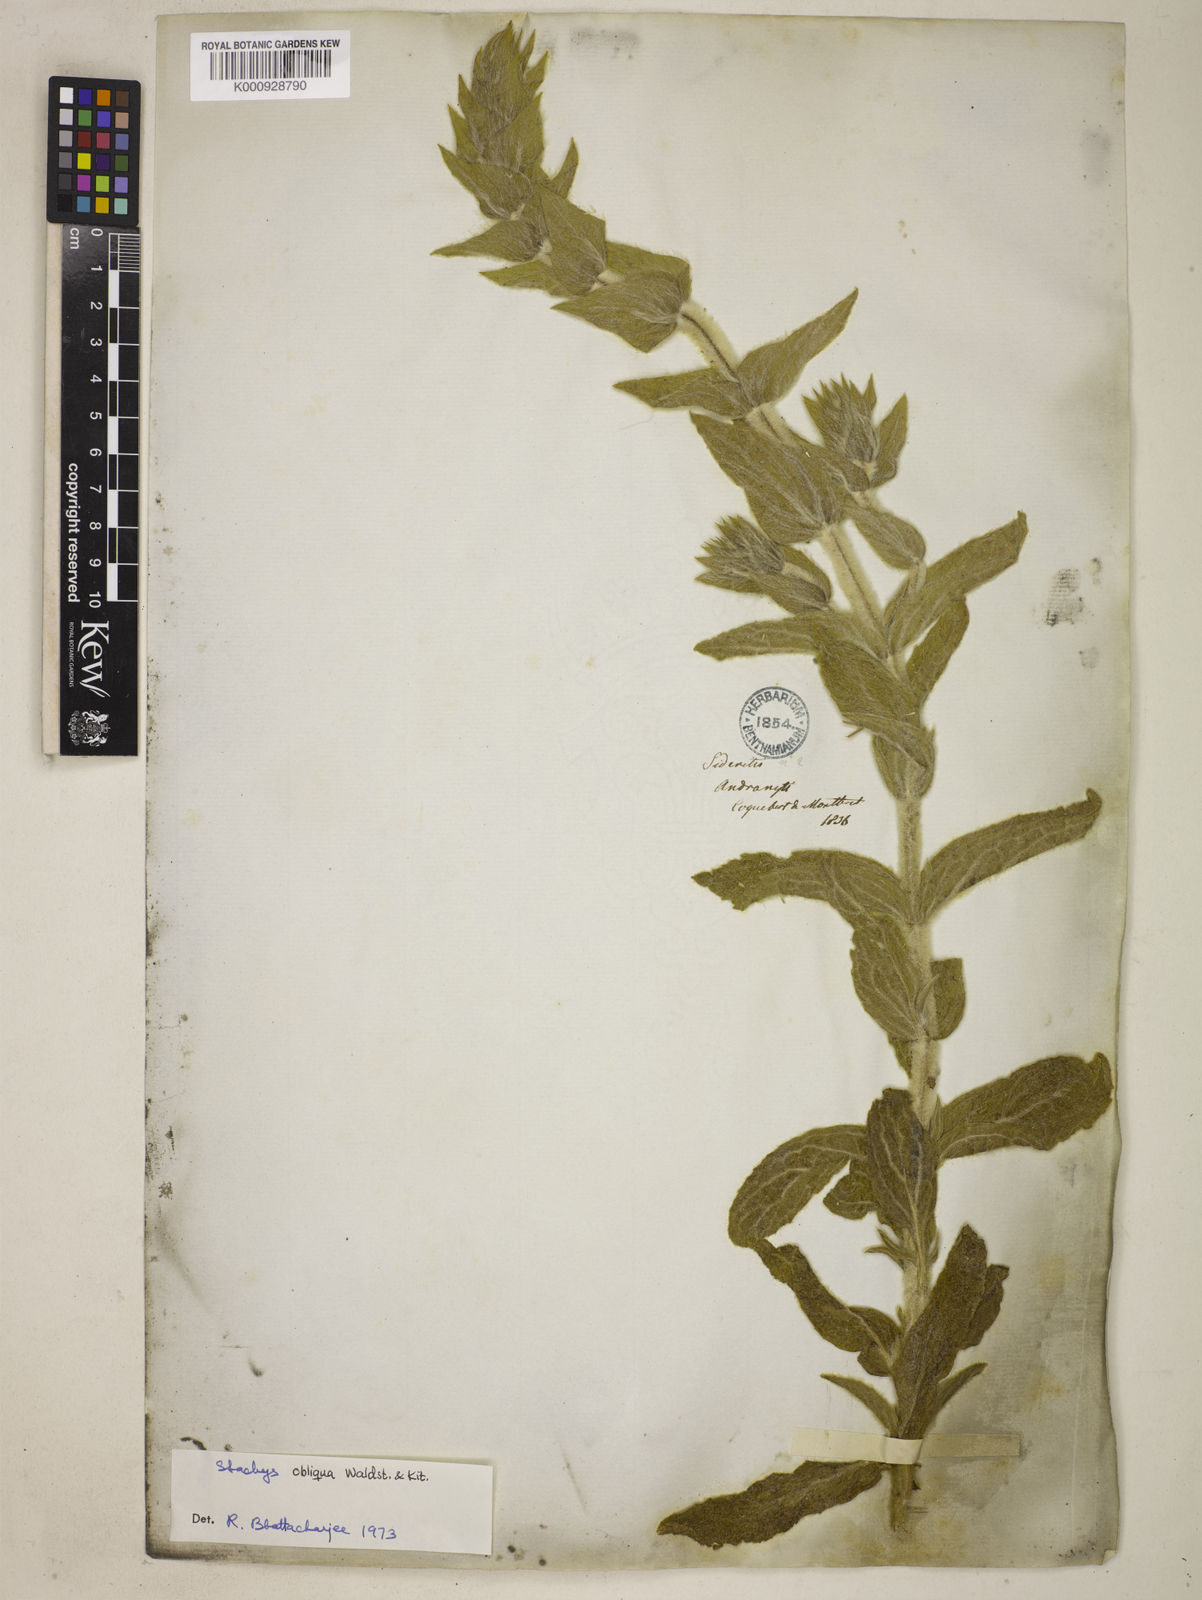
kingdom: Plantae
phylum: Tracheophyta
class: Magnoliopsida
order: Lamiales
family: Lamiaceae
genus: Stachys
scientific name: Stachys alpina
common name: Limestone woundwort
